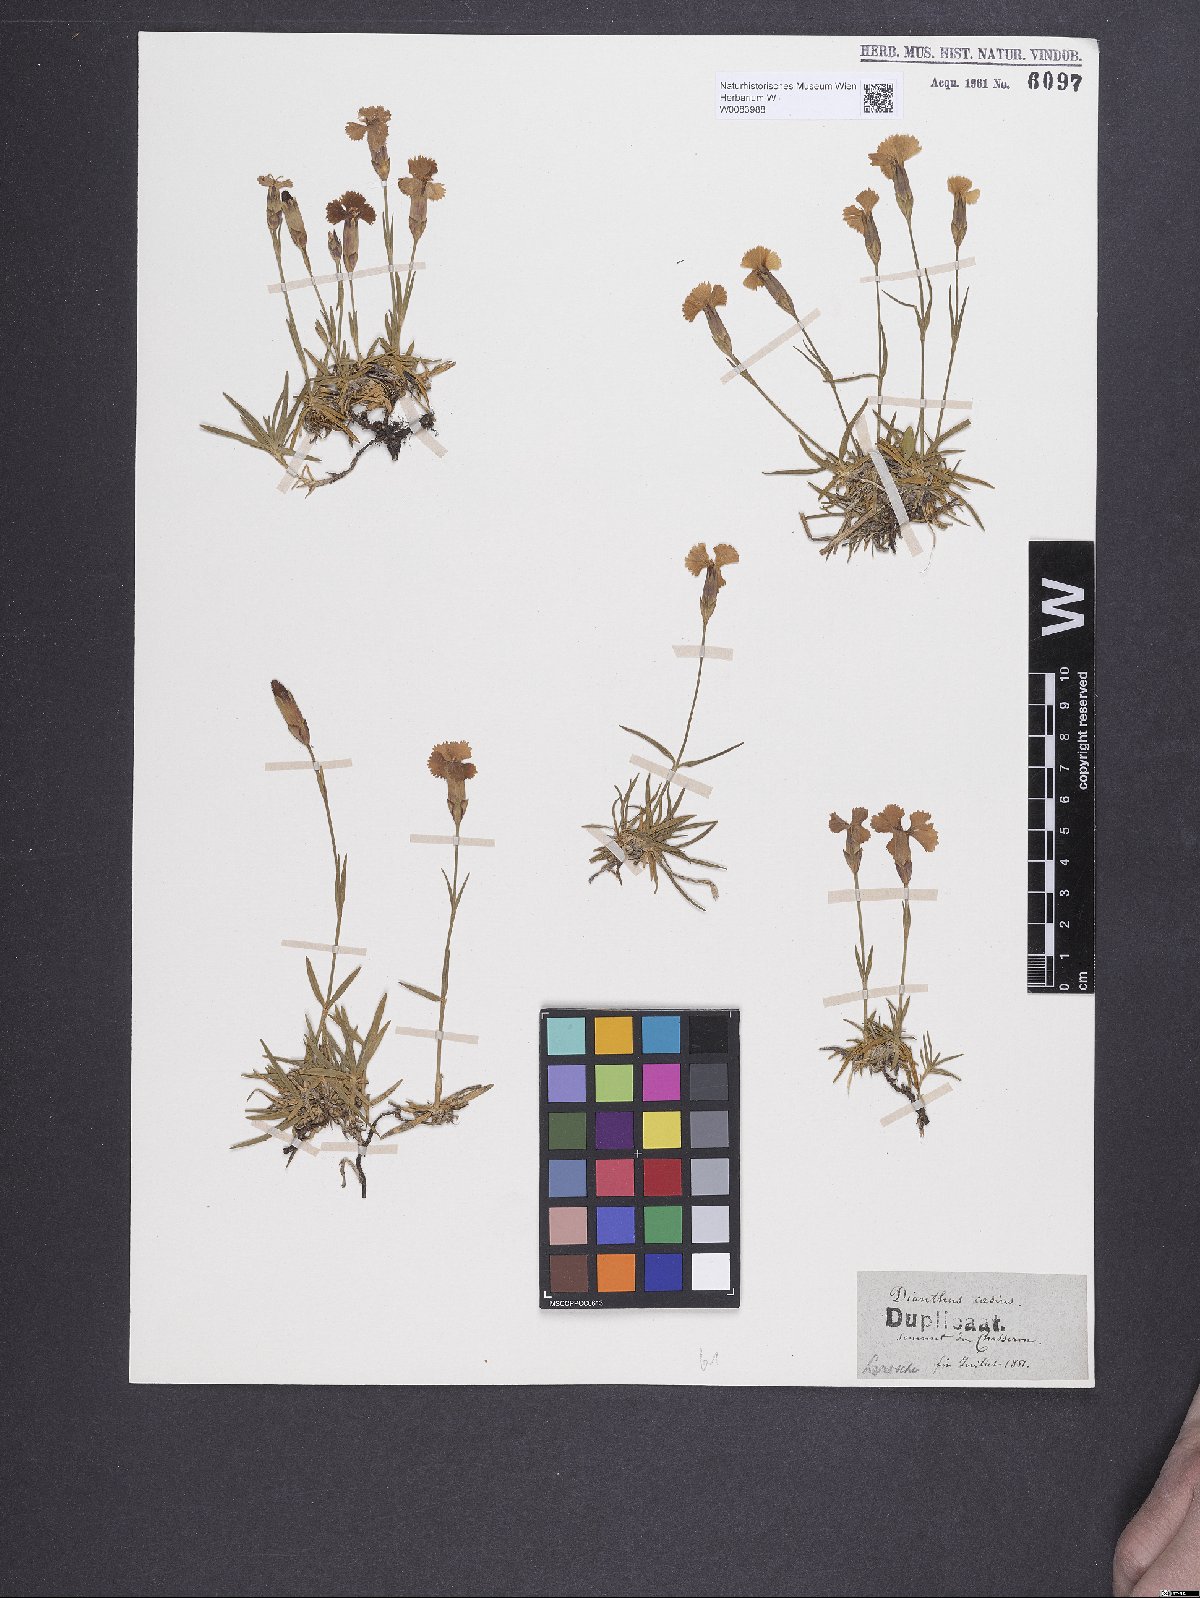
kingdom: Plantae
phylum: Tracheophyta
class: Magnoliopsida
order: Caryophyllales
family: Caryophyllaceae
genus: Dianthus
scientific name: Dianthus gratianopolitanus
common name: Cheddar pink
